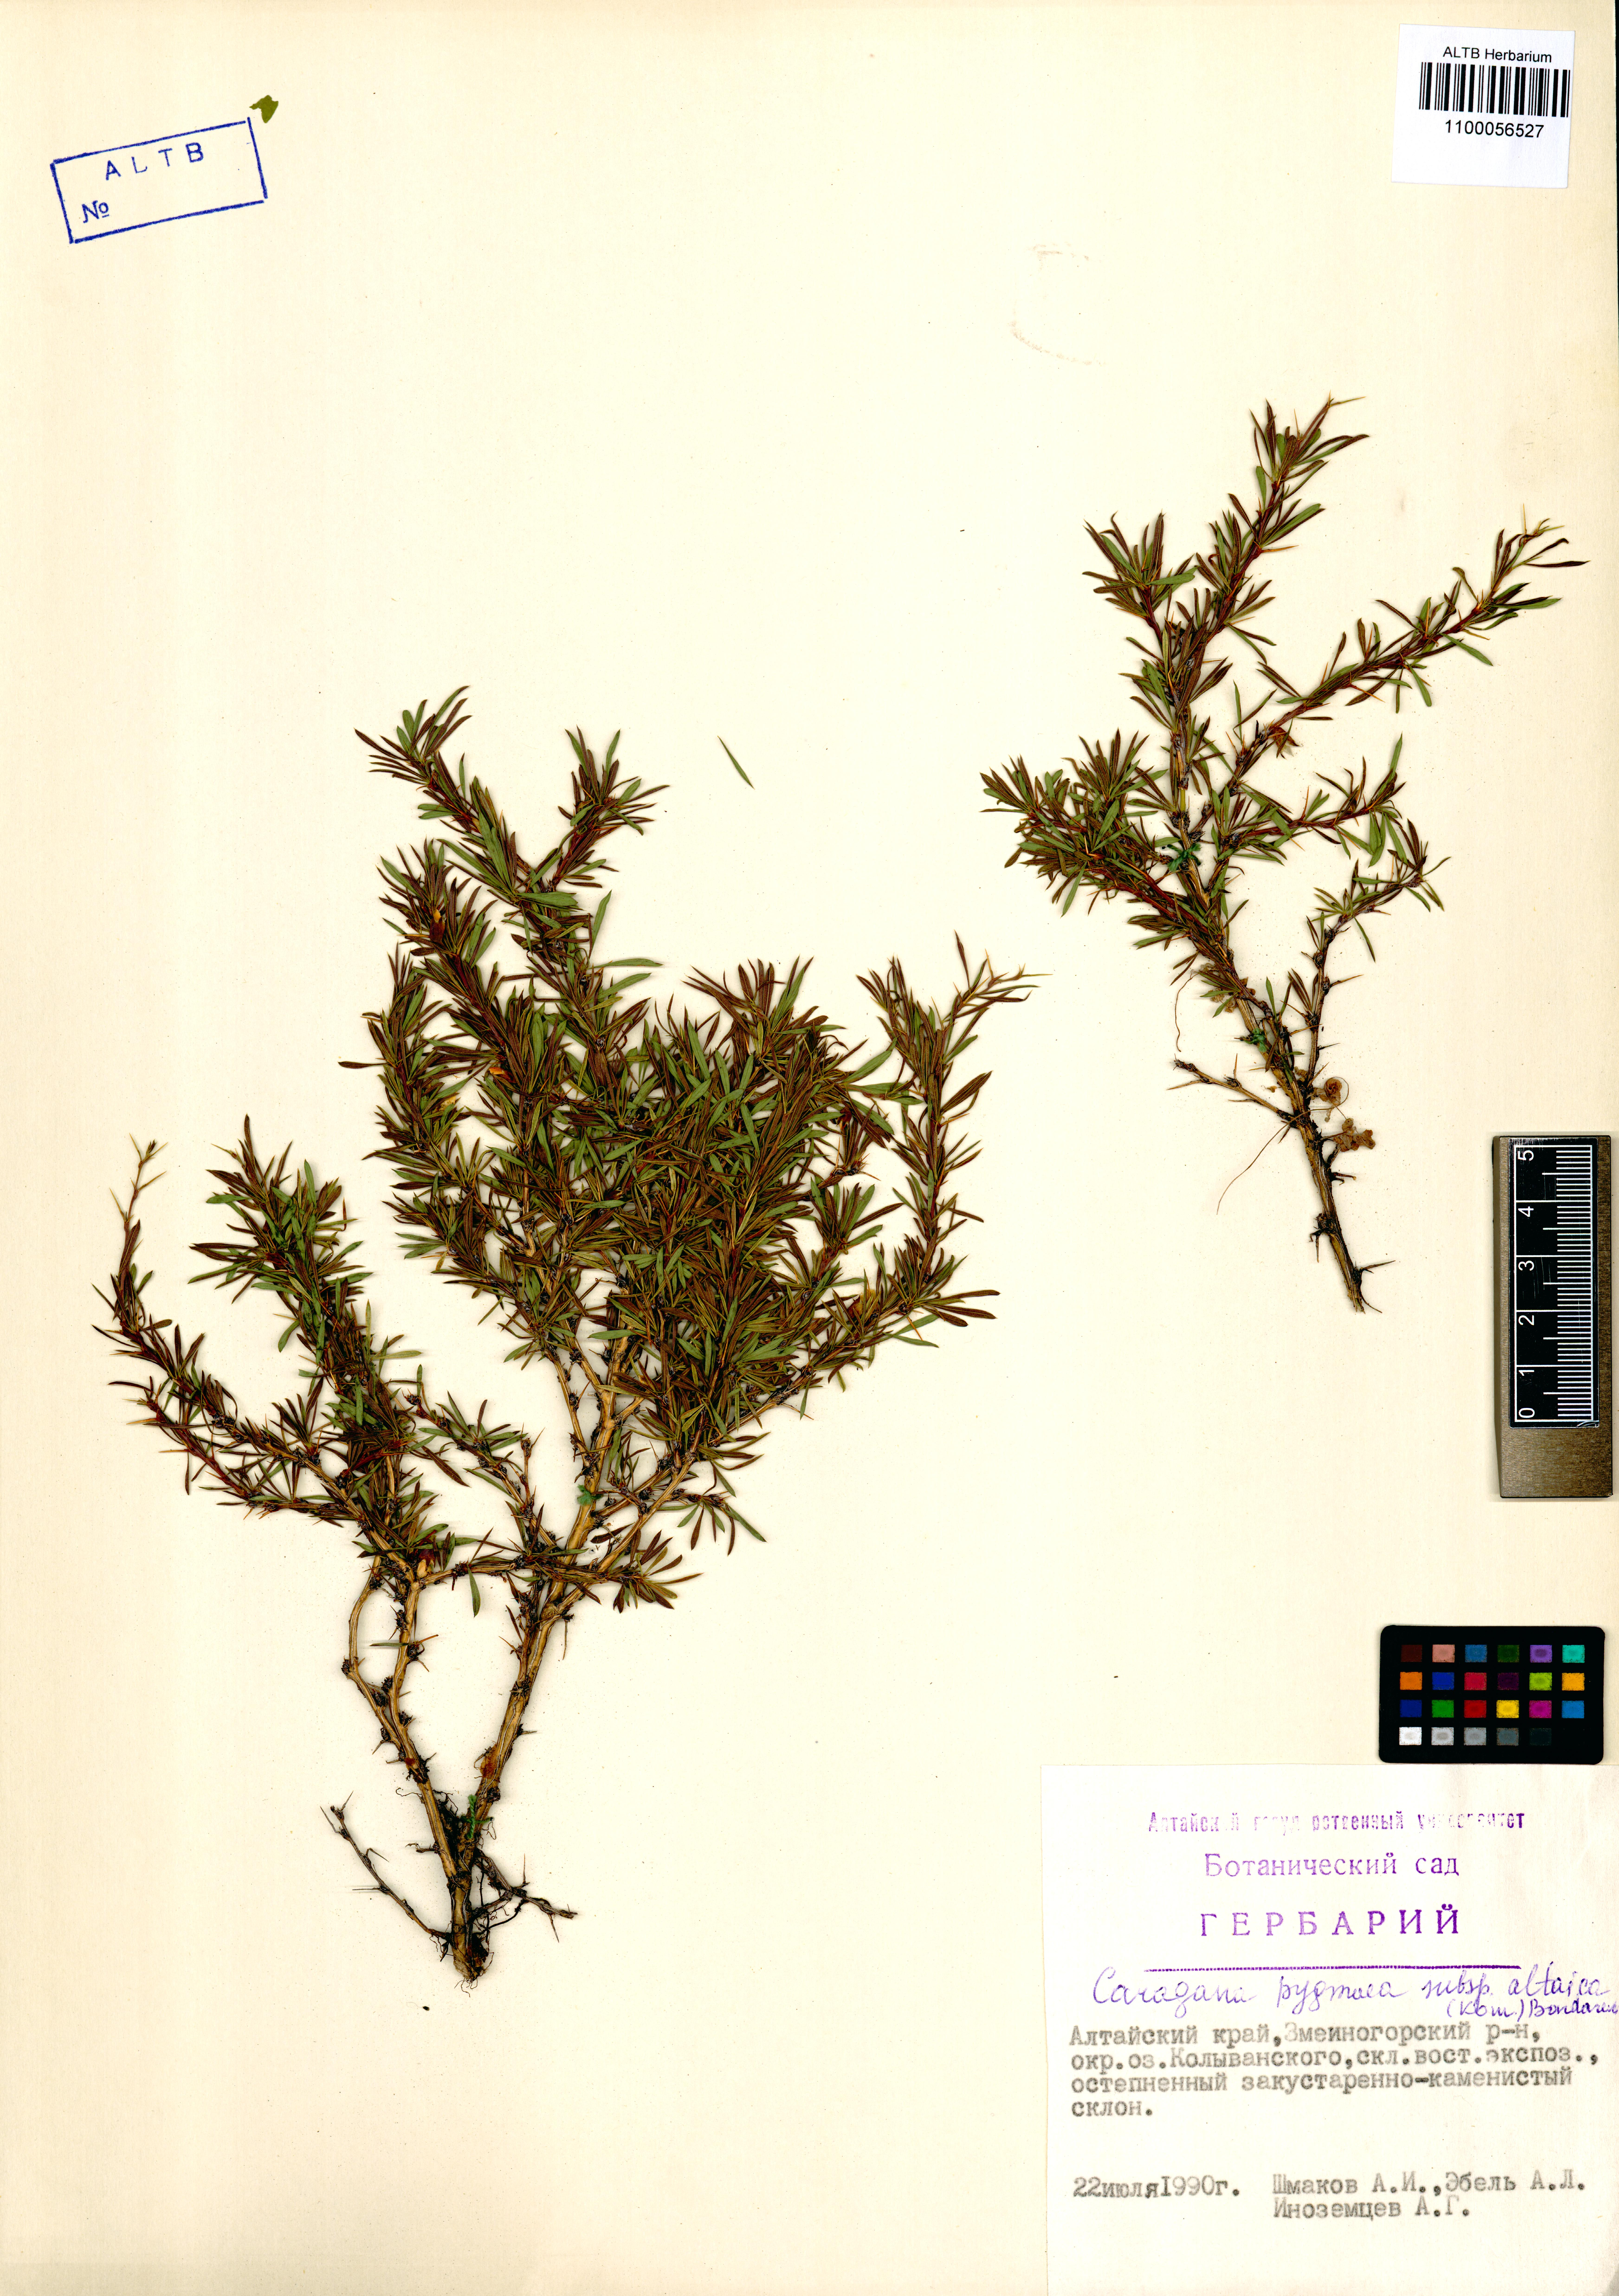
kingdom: Plantae
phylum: Tracheophyta
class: Magnoliopsida
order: Fabales
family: Fabaceae
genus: Caragana
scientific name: Caragana pygmaea
